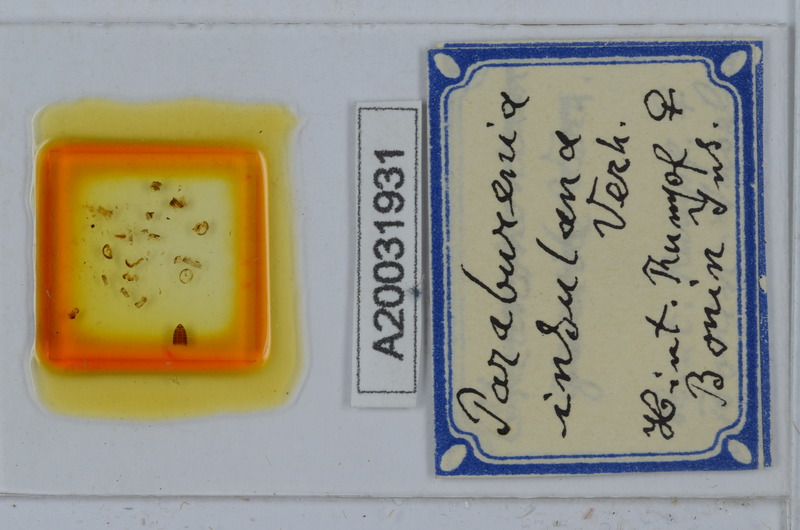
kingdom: Animalia
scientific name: Animalia
